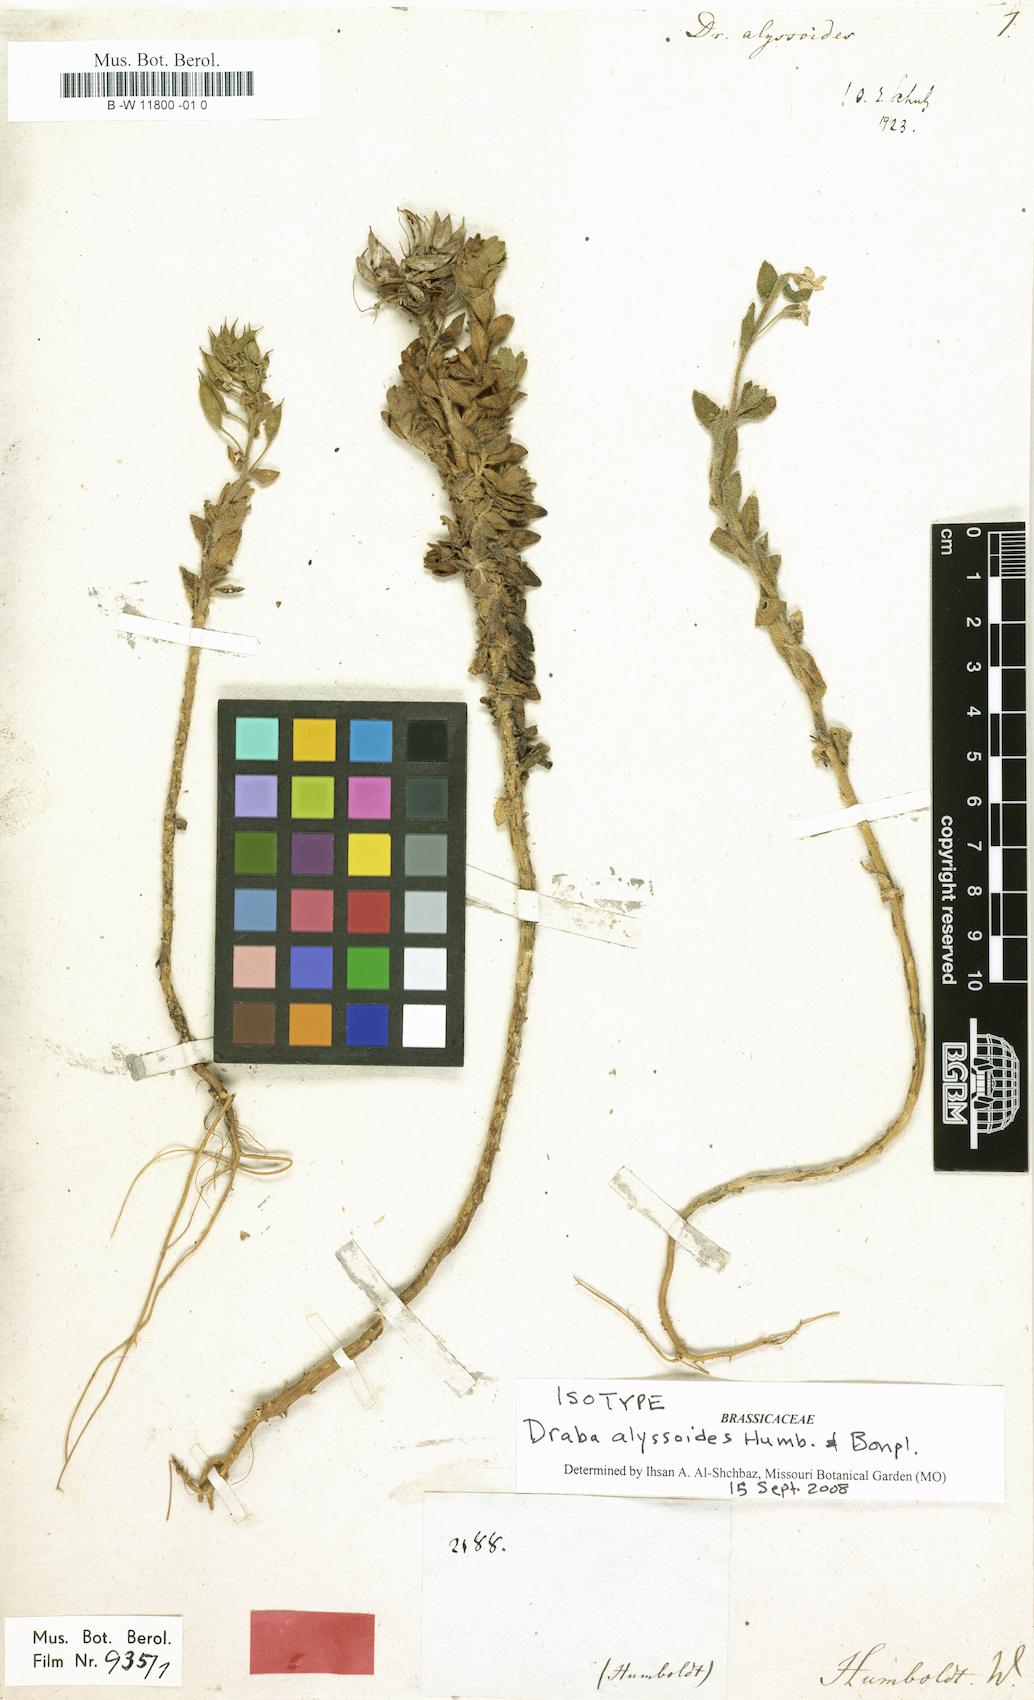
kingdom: Plantae
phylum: Tracheophyta
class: Magnoliopsida
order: Brassicales
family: Brassicaceae
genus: Draba
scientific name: Draba alyssoides
